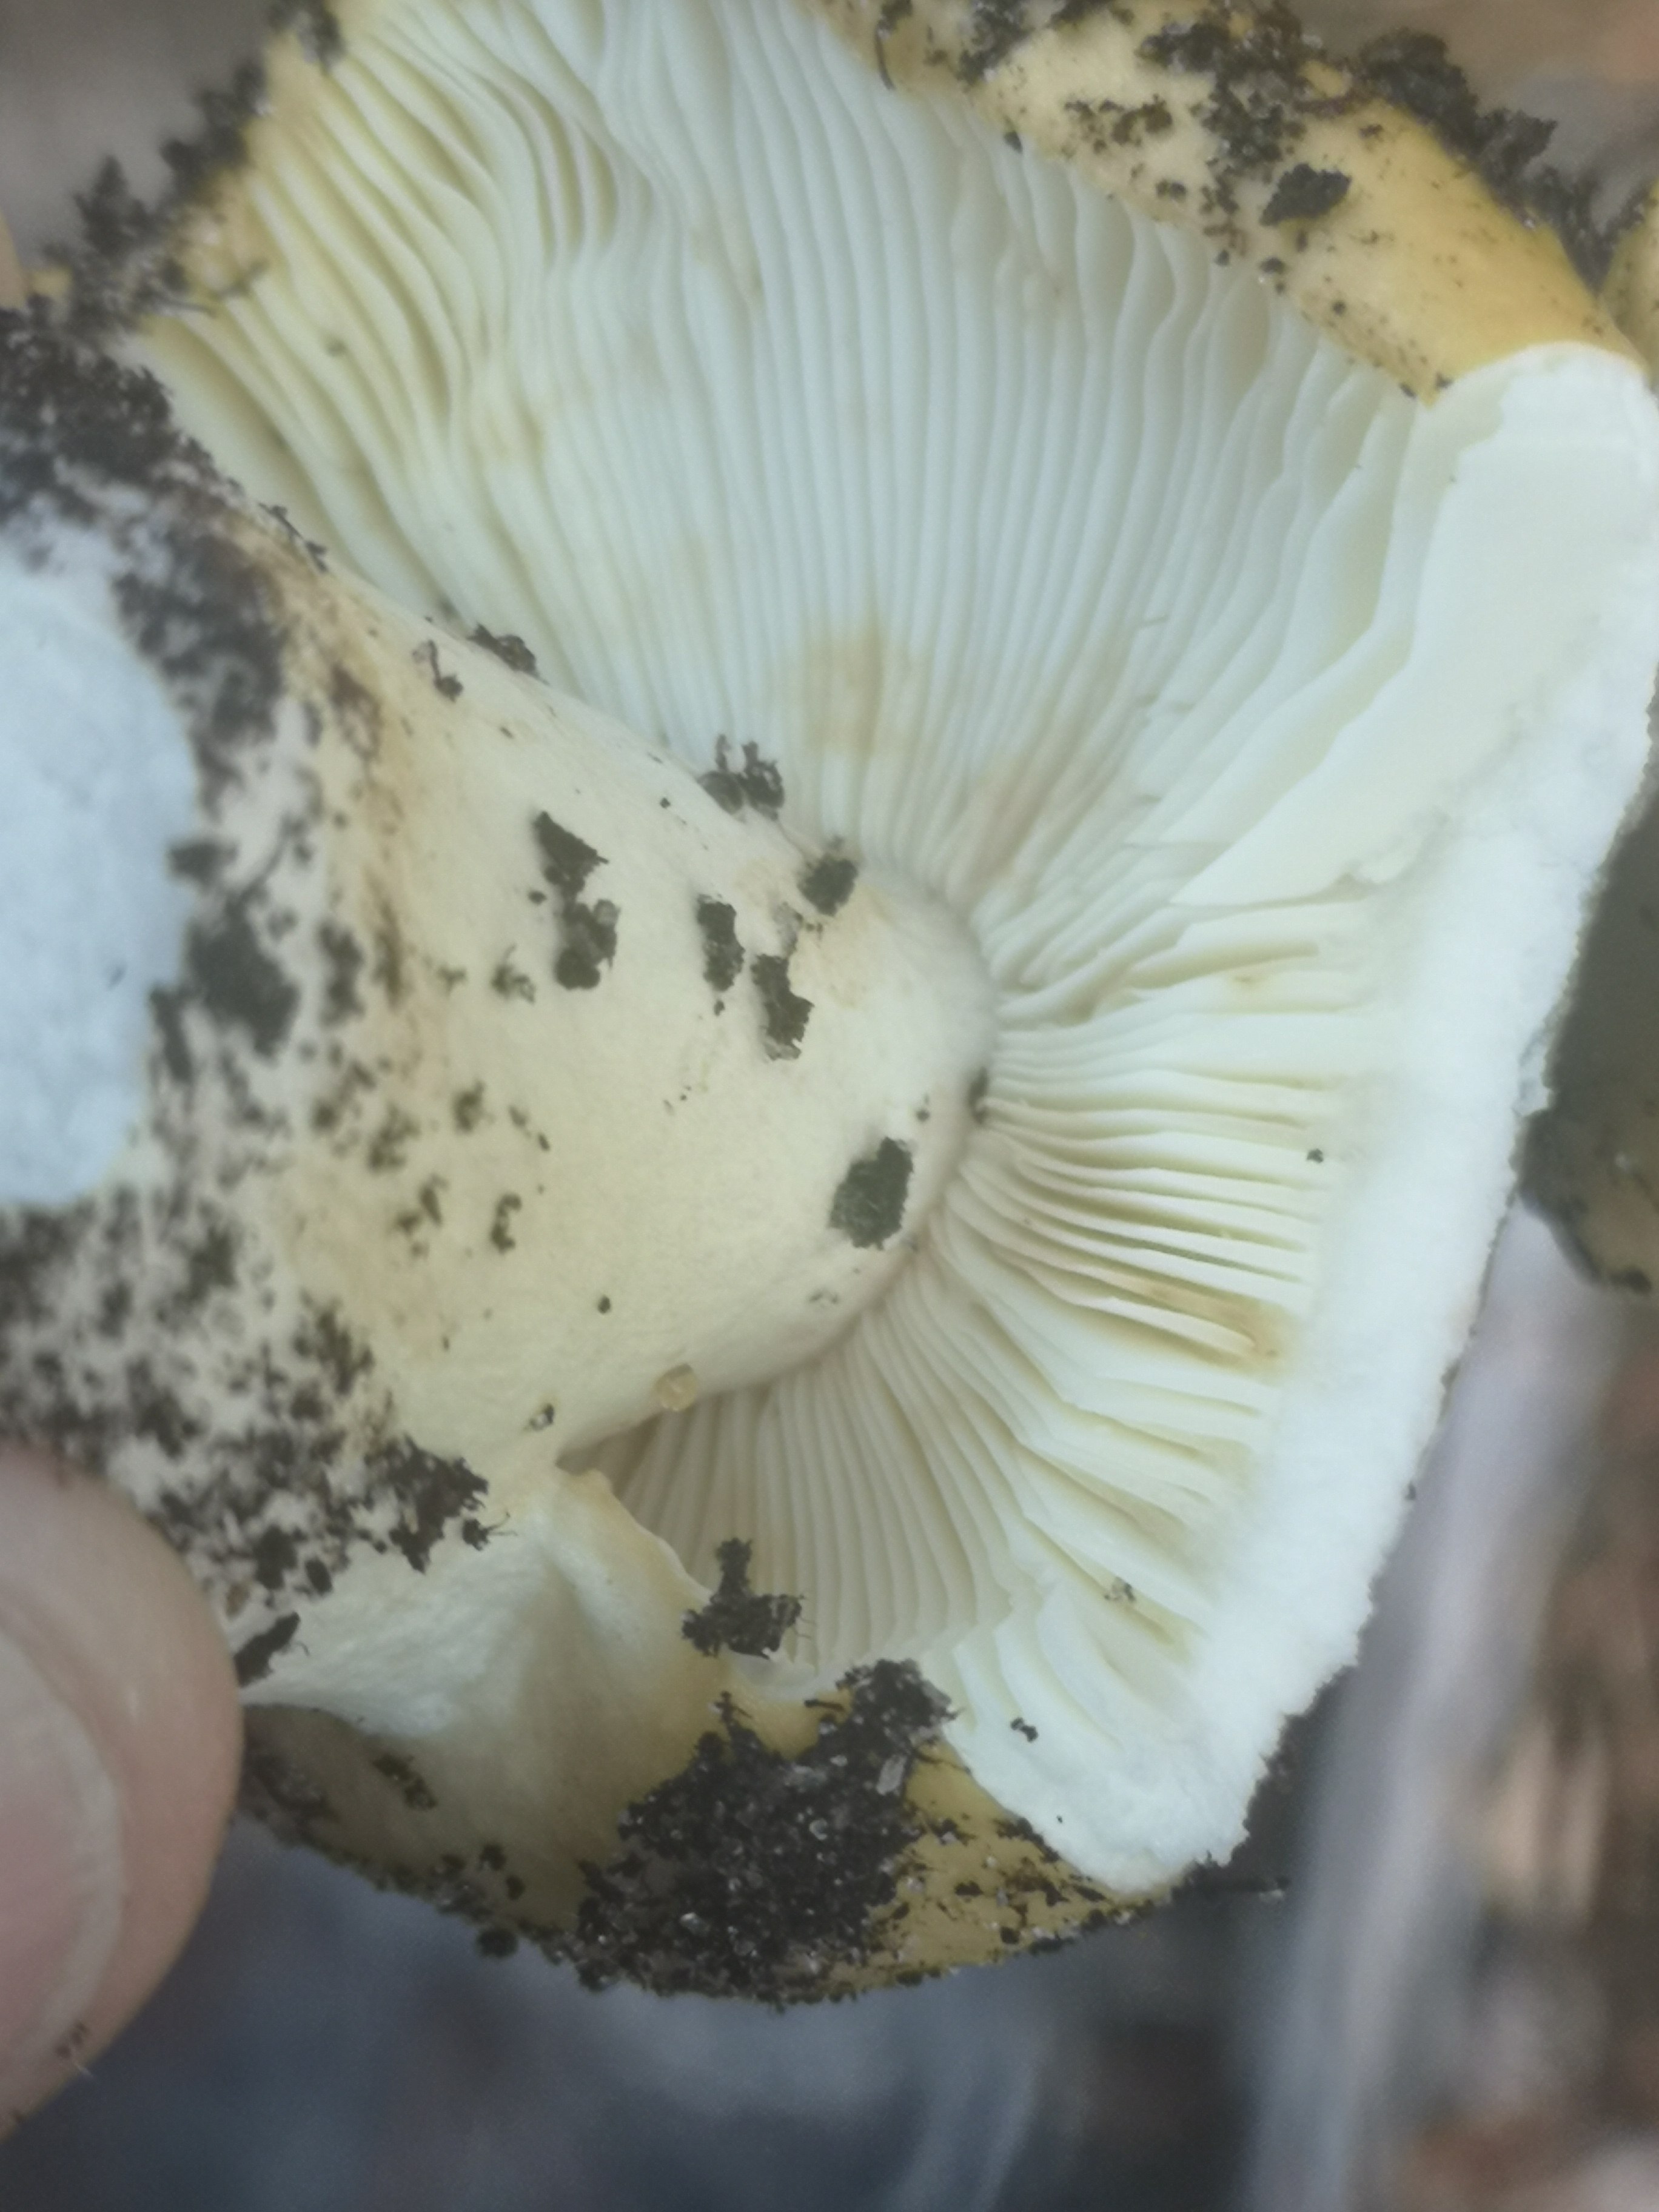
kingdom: Fungi
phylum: Basidiomycota
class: Agaricomycetes
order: Russulales
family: Russulaceae
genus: Russula
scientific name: Russula ochroleuca
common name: okkergul skørhat
